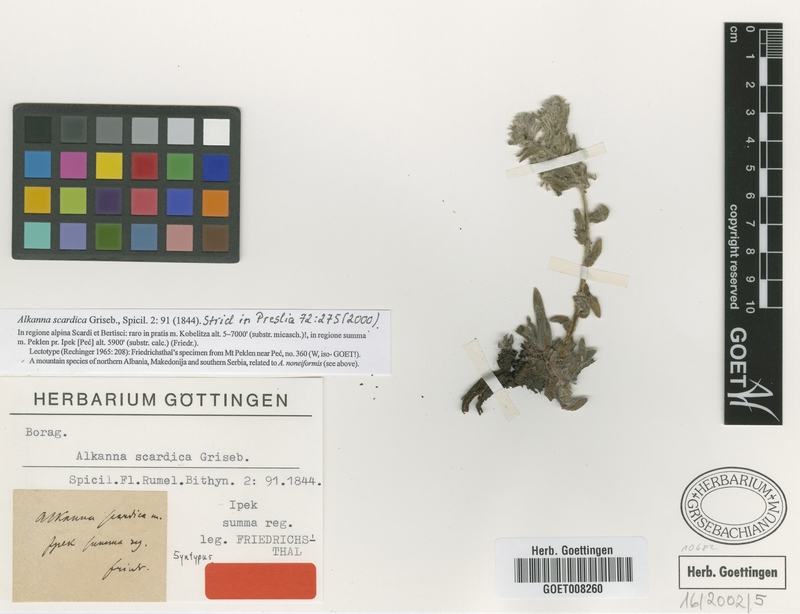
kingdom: Plantae
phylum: Tracheophyta
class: Magnoliopsida
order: Boraginales
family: Boraginaceae
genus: Alkanna
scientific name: Alkanna scardica
